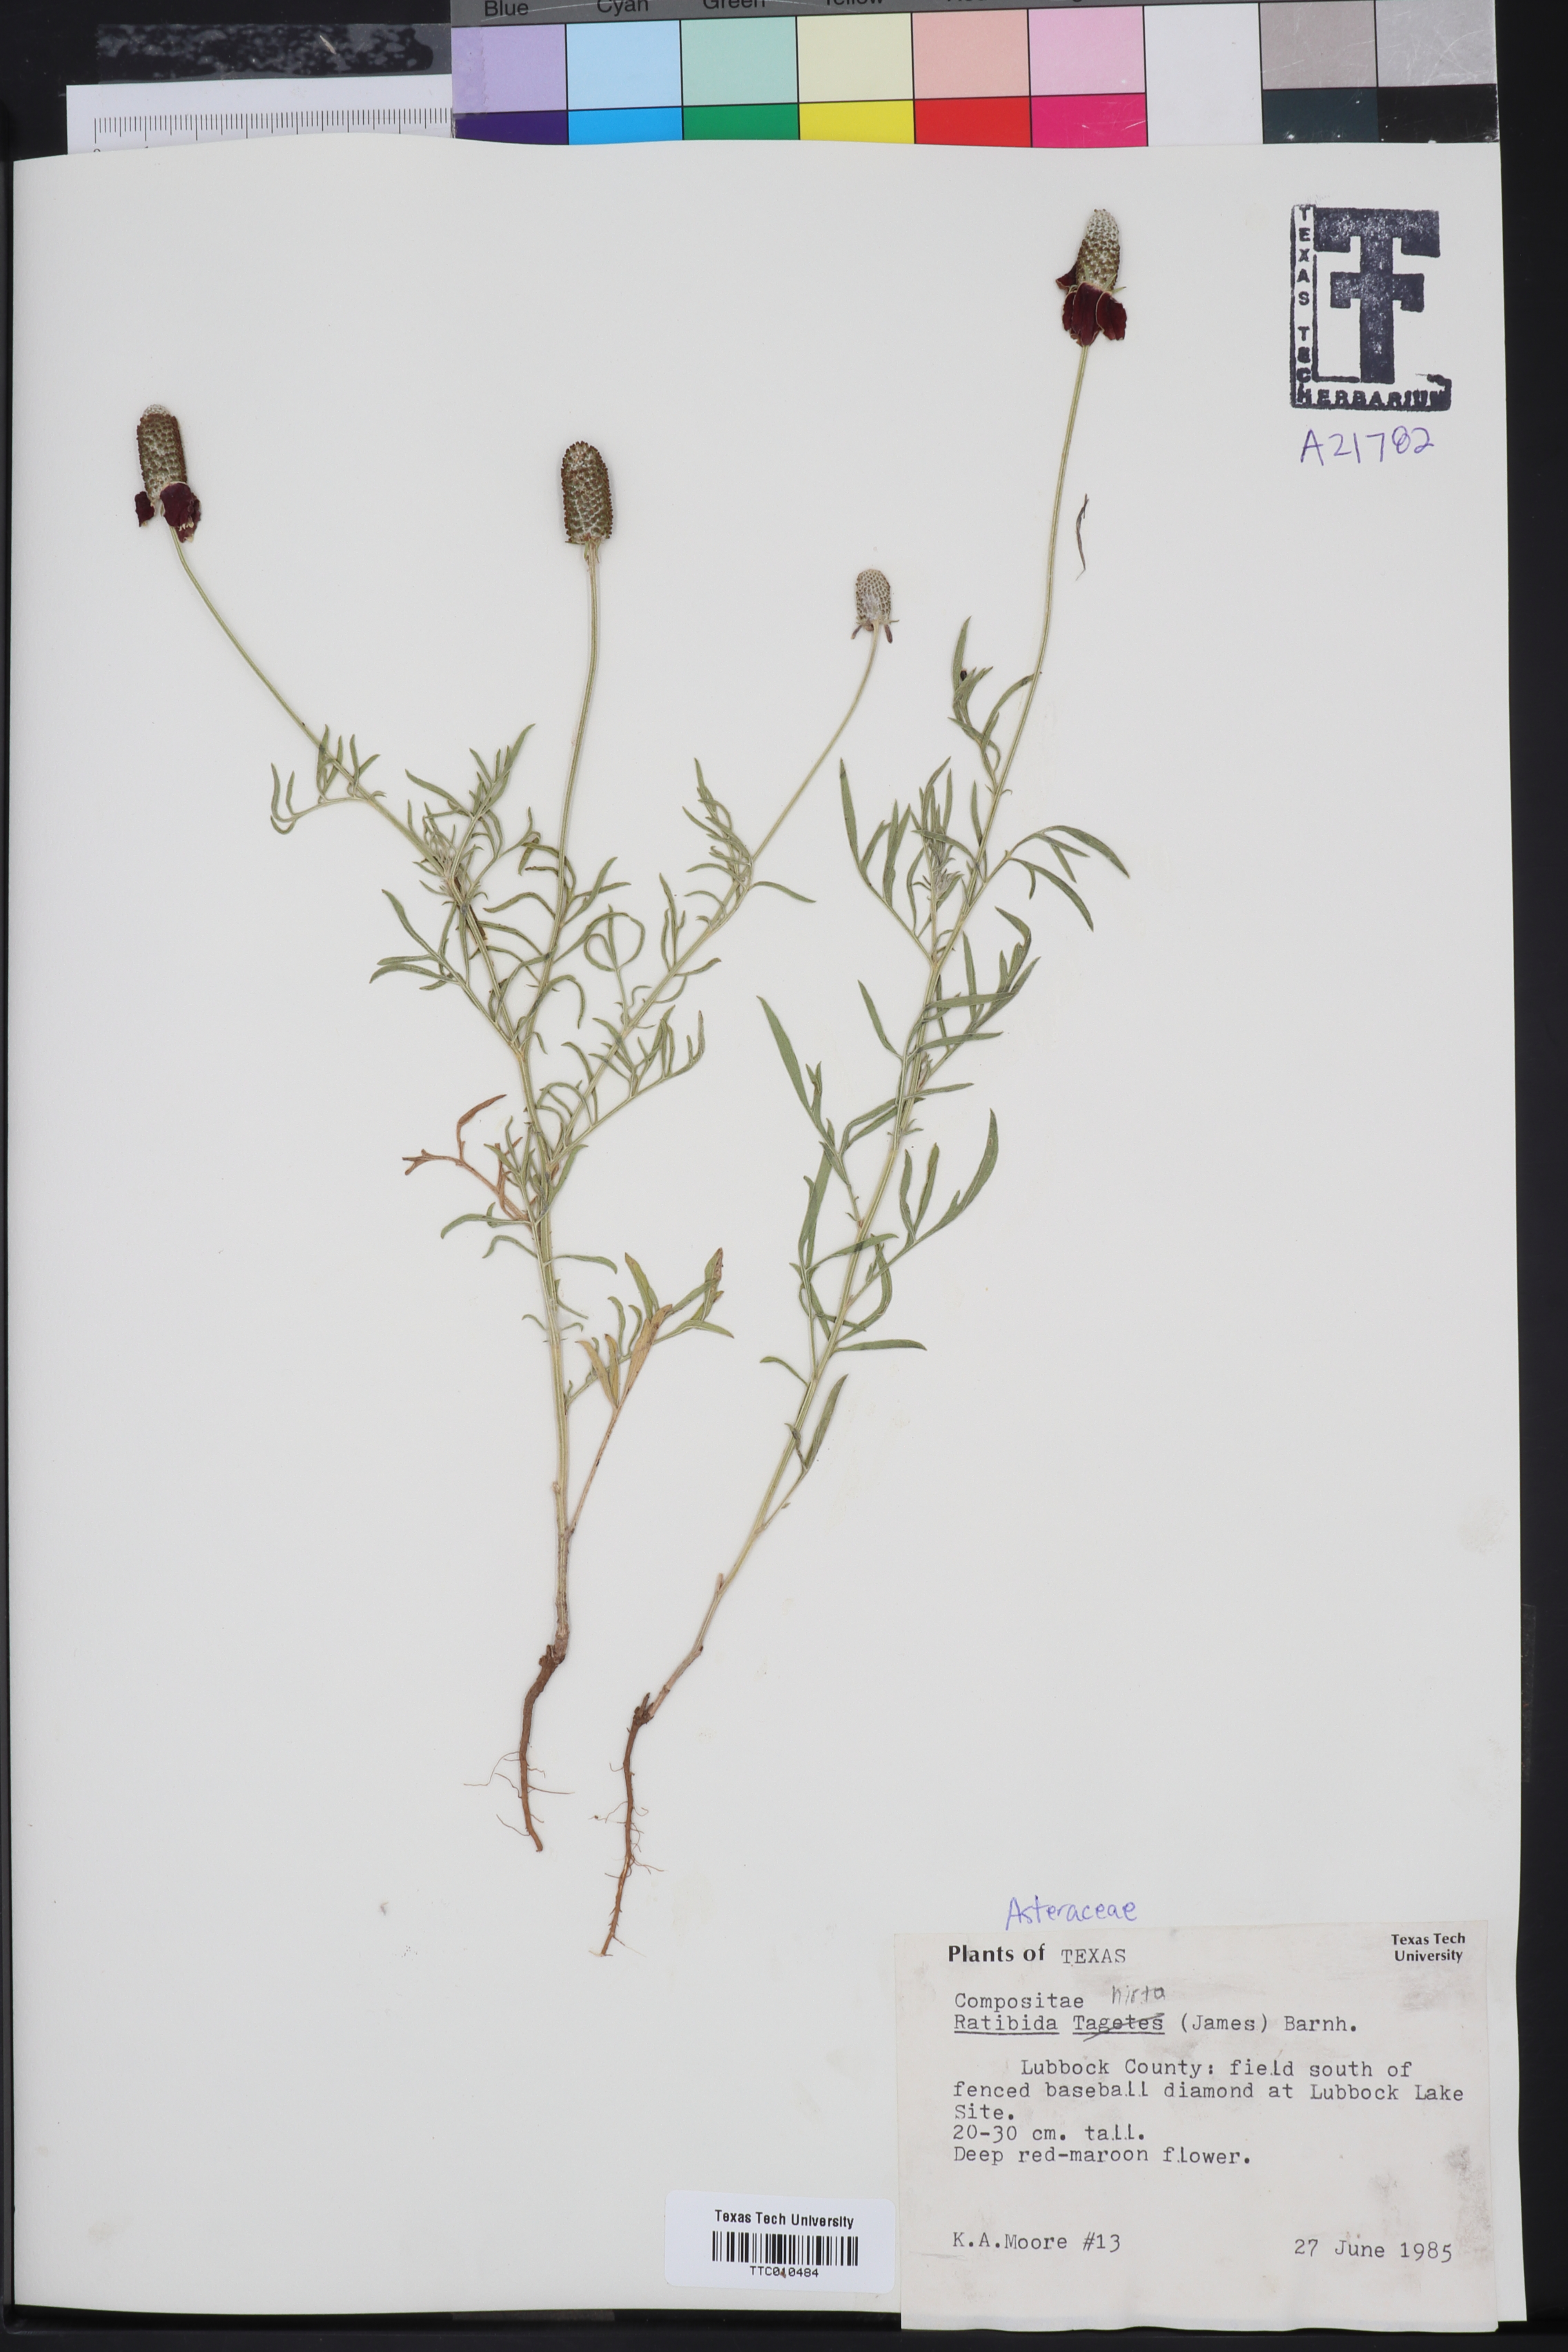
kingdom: Plantae
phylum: Tracheophyta
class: Magnoliopsida
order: Asterales
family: Asteraceae
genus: Ratibida
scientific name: Ratibida tagetes
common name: Green mexican-hat
